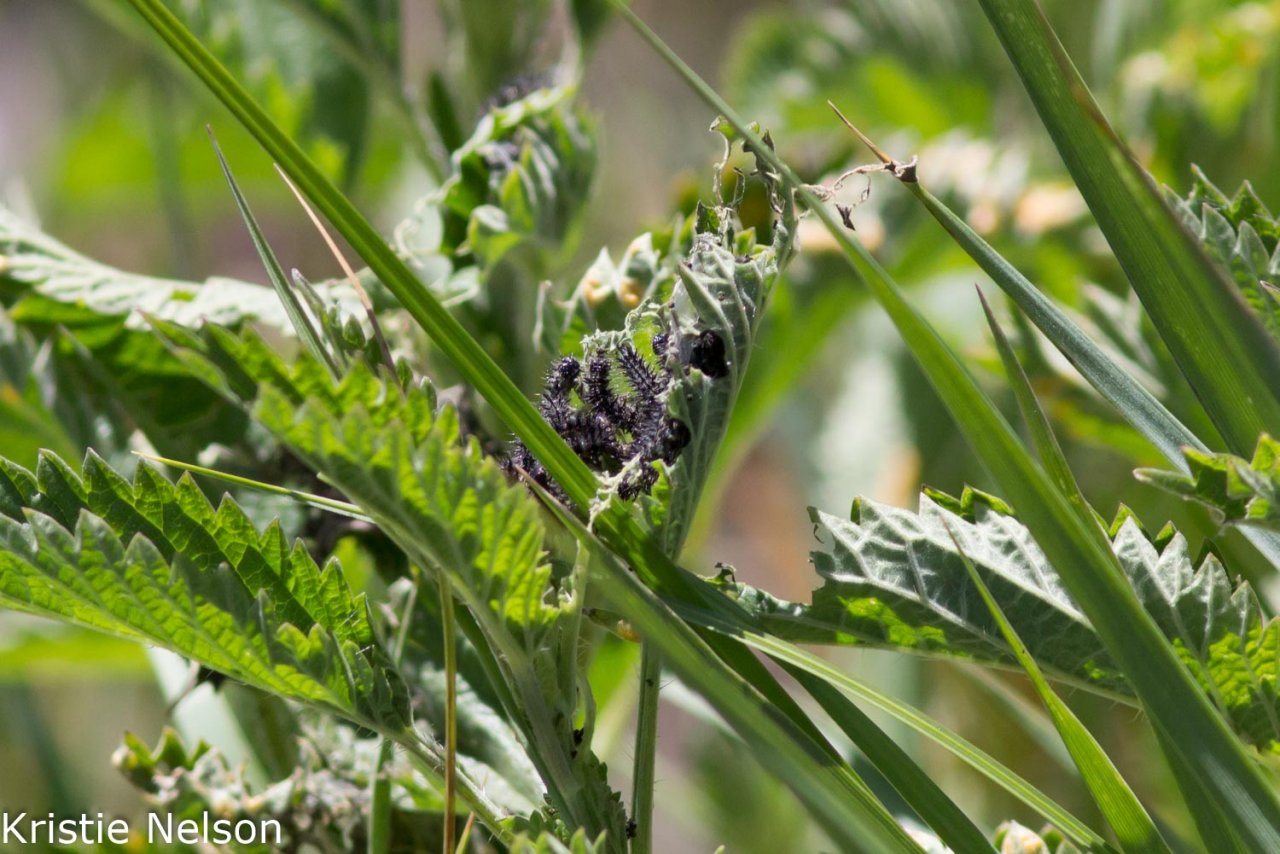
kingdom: Animalia
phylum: Arthropoda
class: Insecta
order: Lepidoptera
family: Nymphalidae
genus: Aglais
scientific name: Aglais milberti
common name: Milbert's Tortoiseshell
